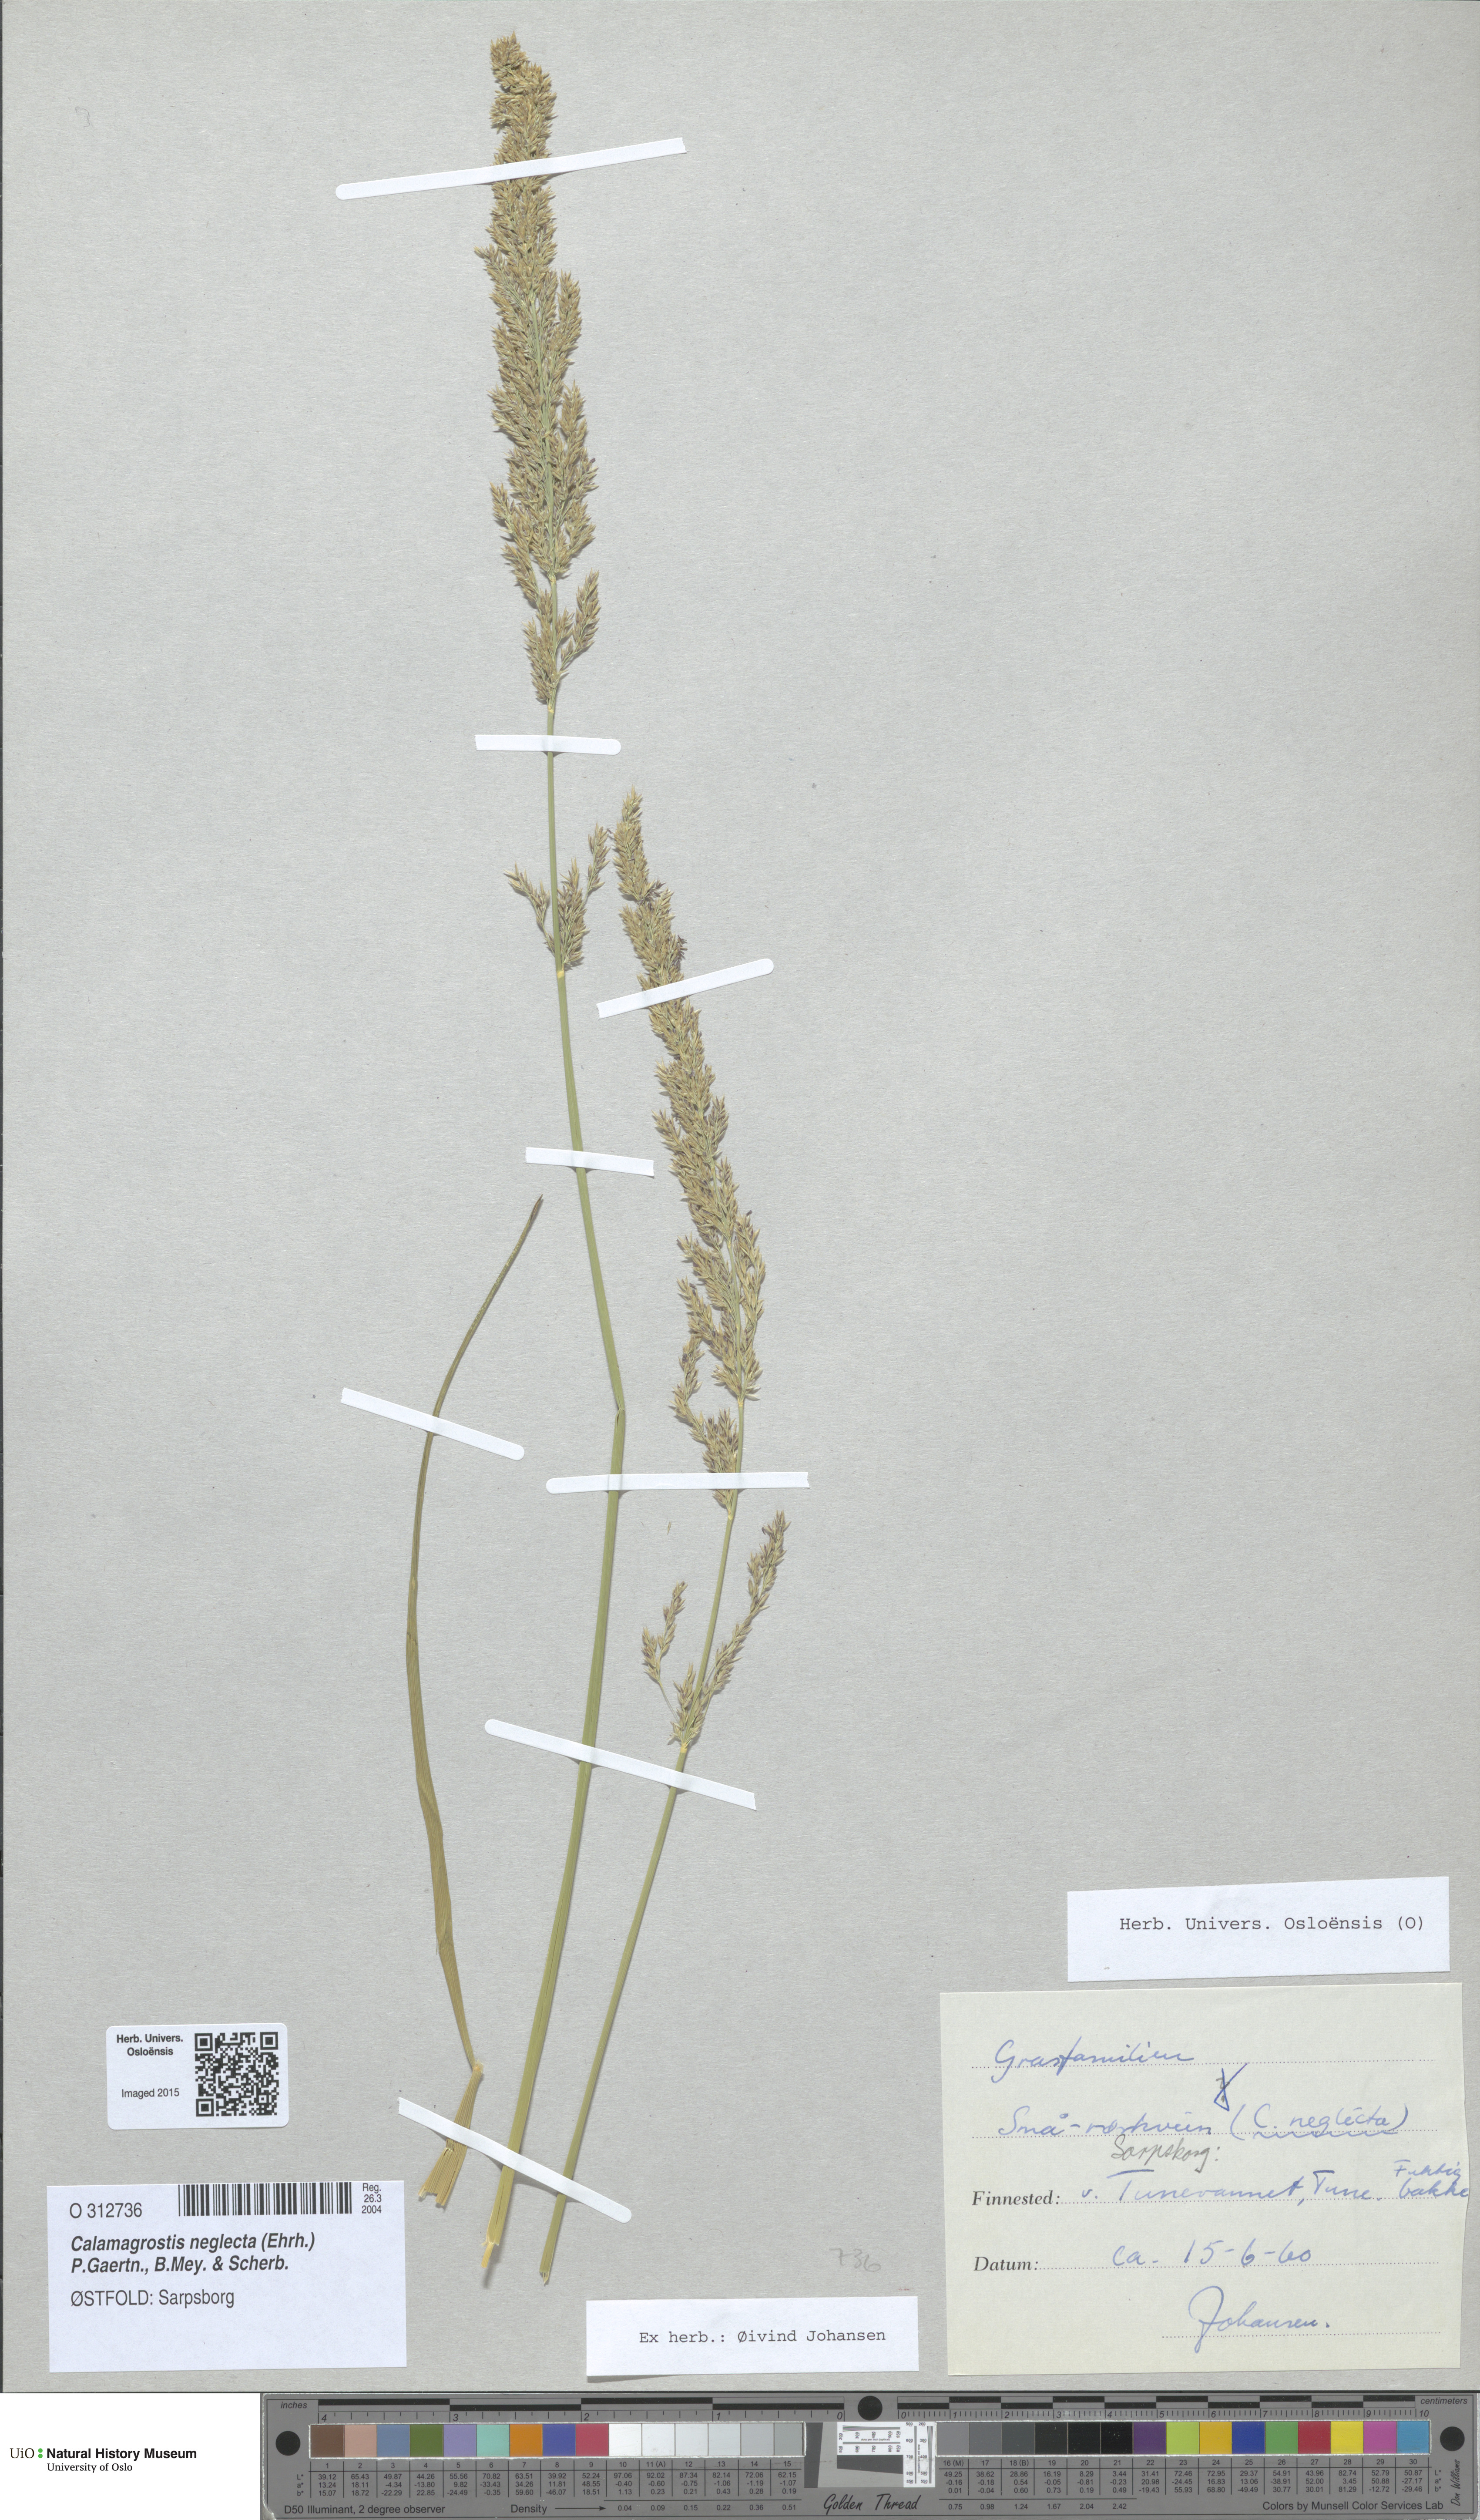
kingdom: Plantae
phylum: Tracheophyta
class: Liliopsida
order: Poales
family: Poaceae
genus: Achnatherum
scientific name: Achnatherum calamagrostis
